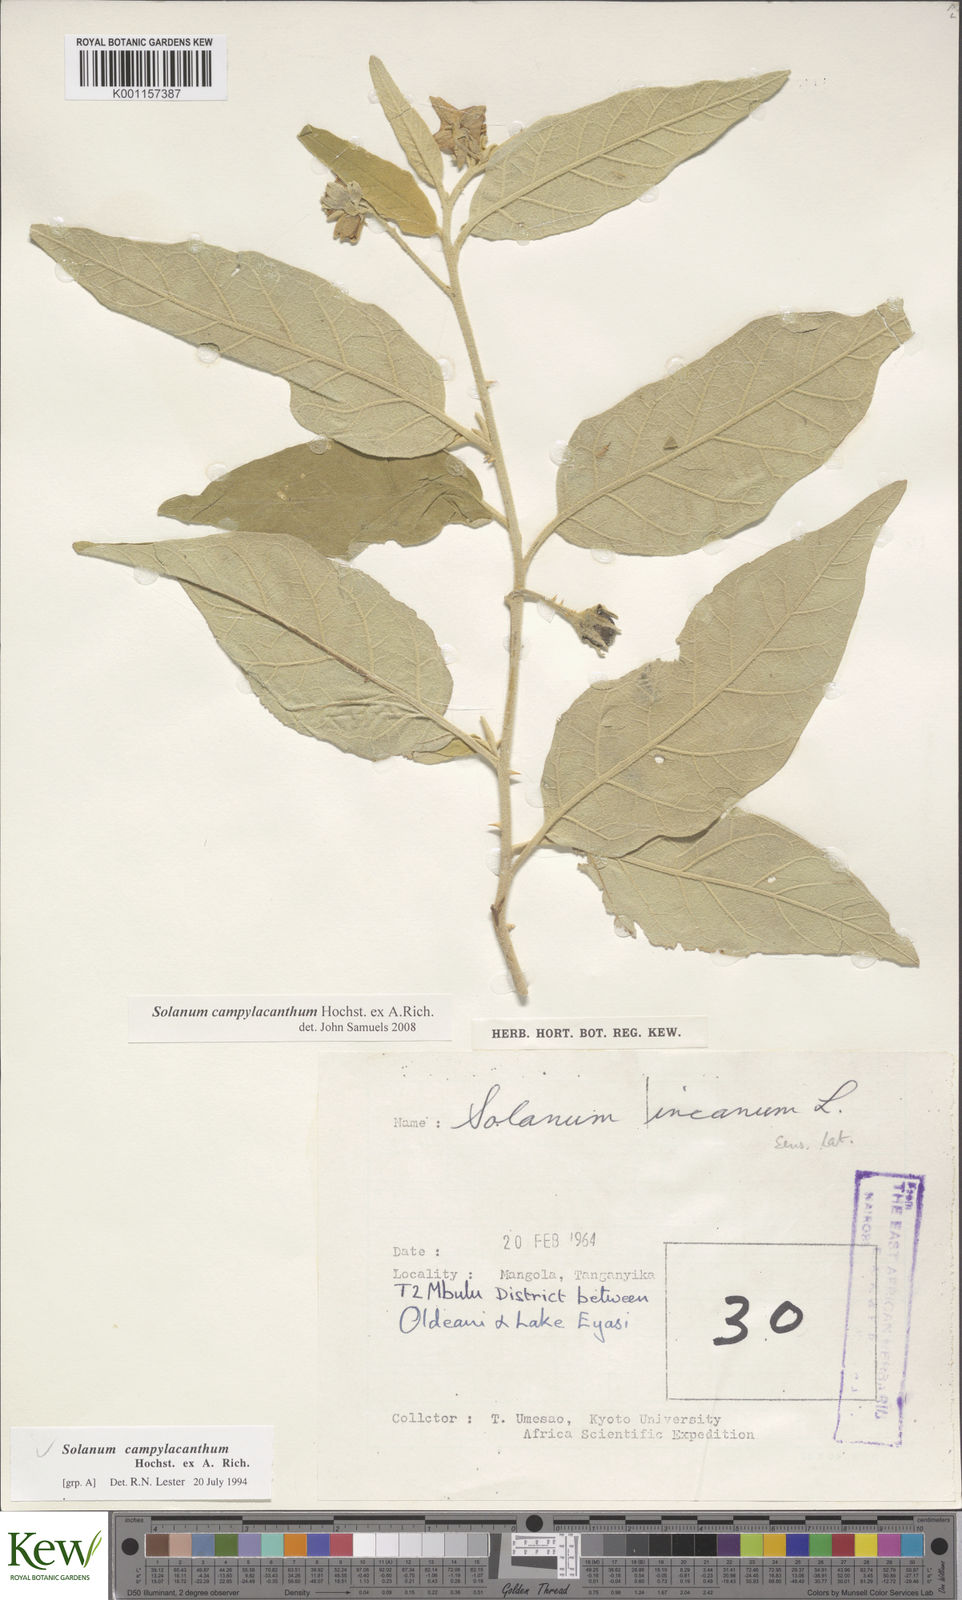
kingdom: Plantae
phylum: Tracheophyta
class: Magnoliopsida
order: Solanales
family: Solanaceae
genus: Solanum
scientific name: Solanum campylacanthum
